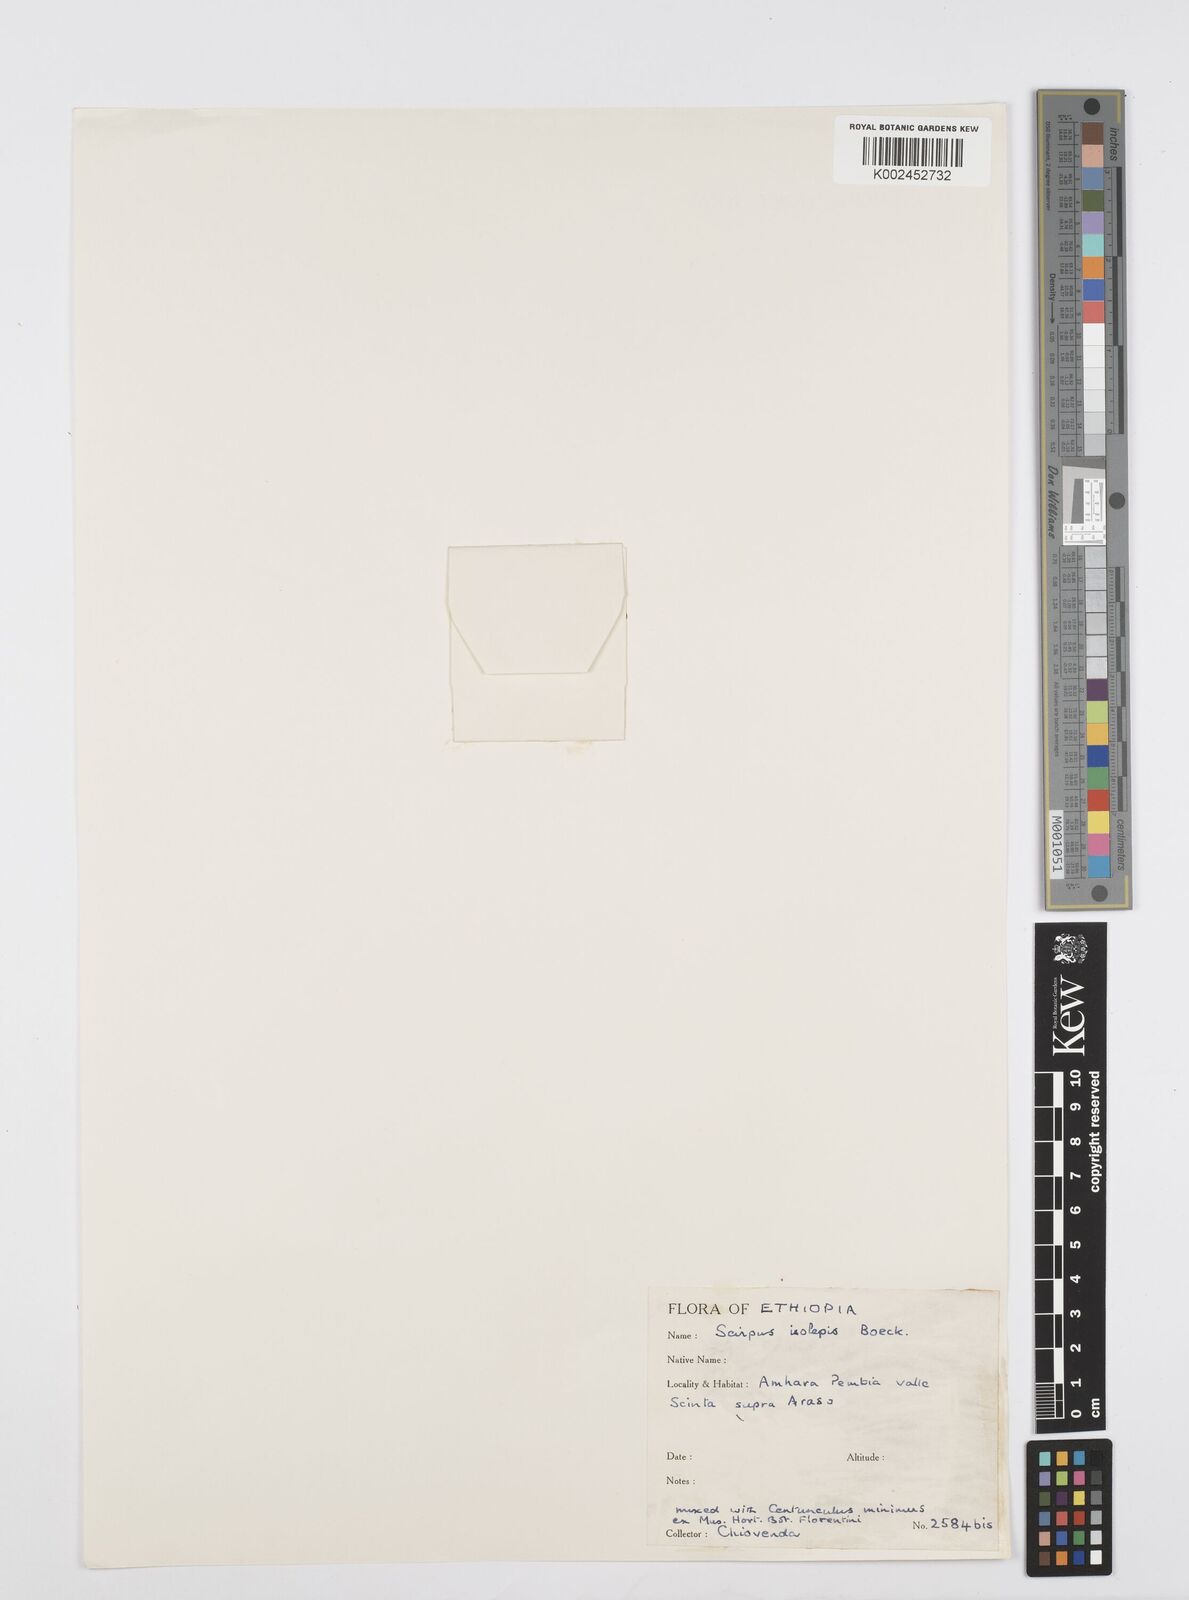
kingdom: Plantae
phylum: Tracheophyta
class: Liliopsida
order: Poales
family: Cyperaceae
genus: Cyperus
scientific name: Cyperus isolepis
